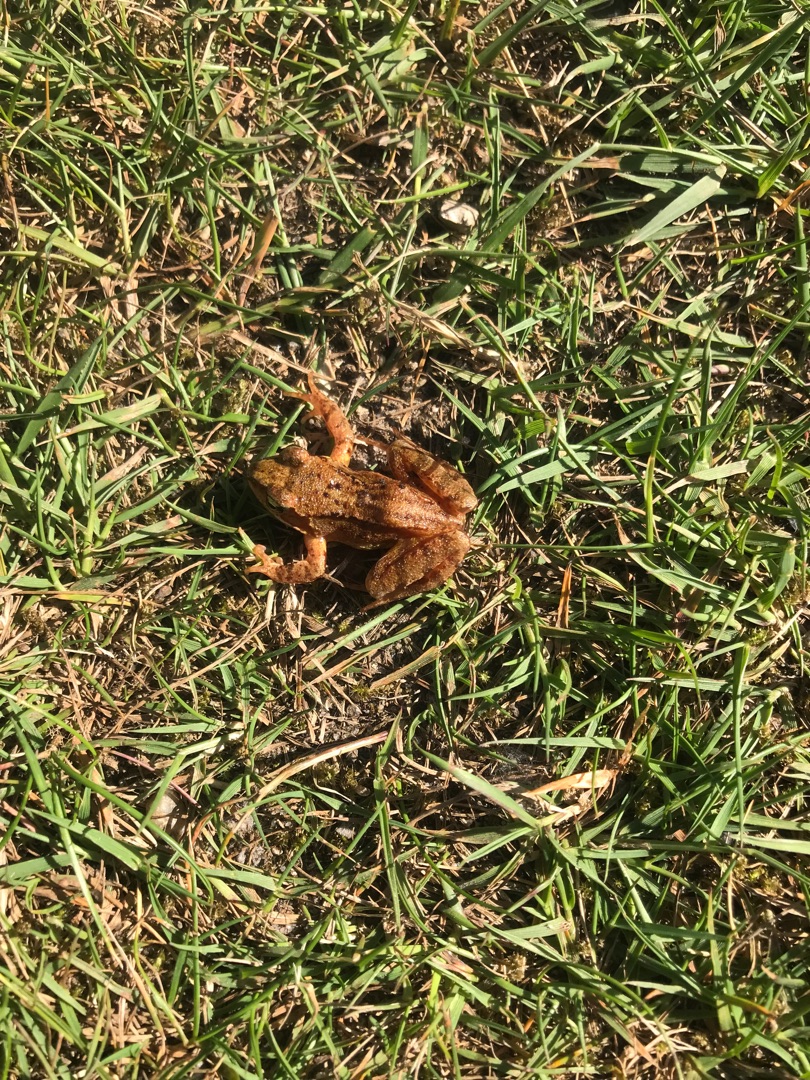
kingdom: Animalia
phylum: Chordata
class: Amphibia
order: Anura
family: Ranidae
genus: Rana
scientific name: Rana temporaria
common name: Butsnudet frø
